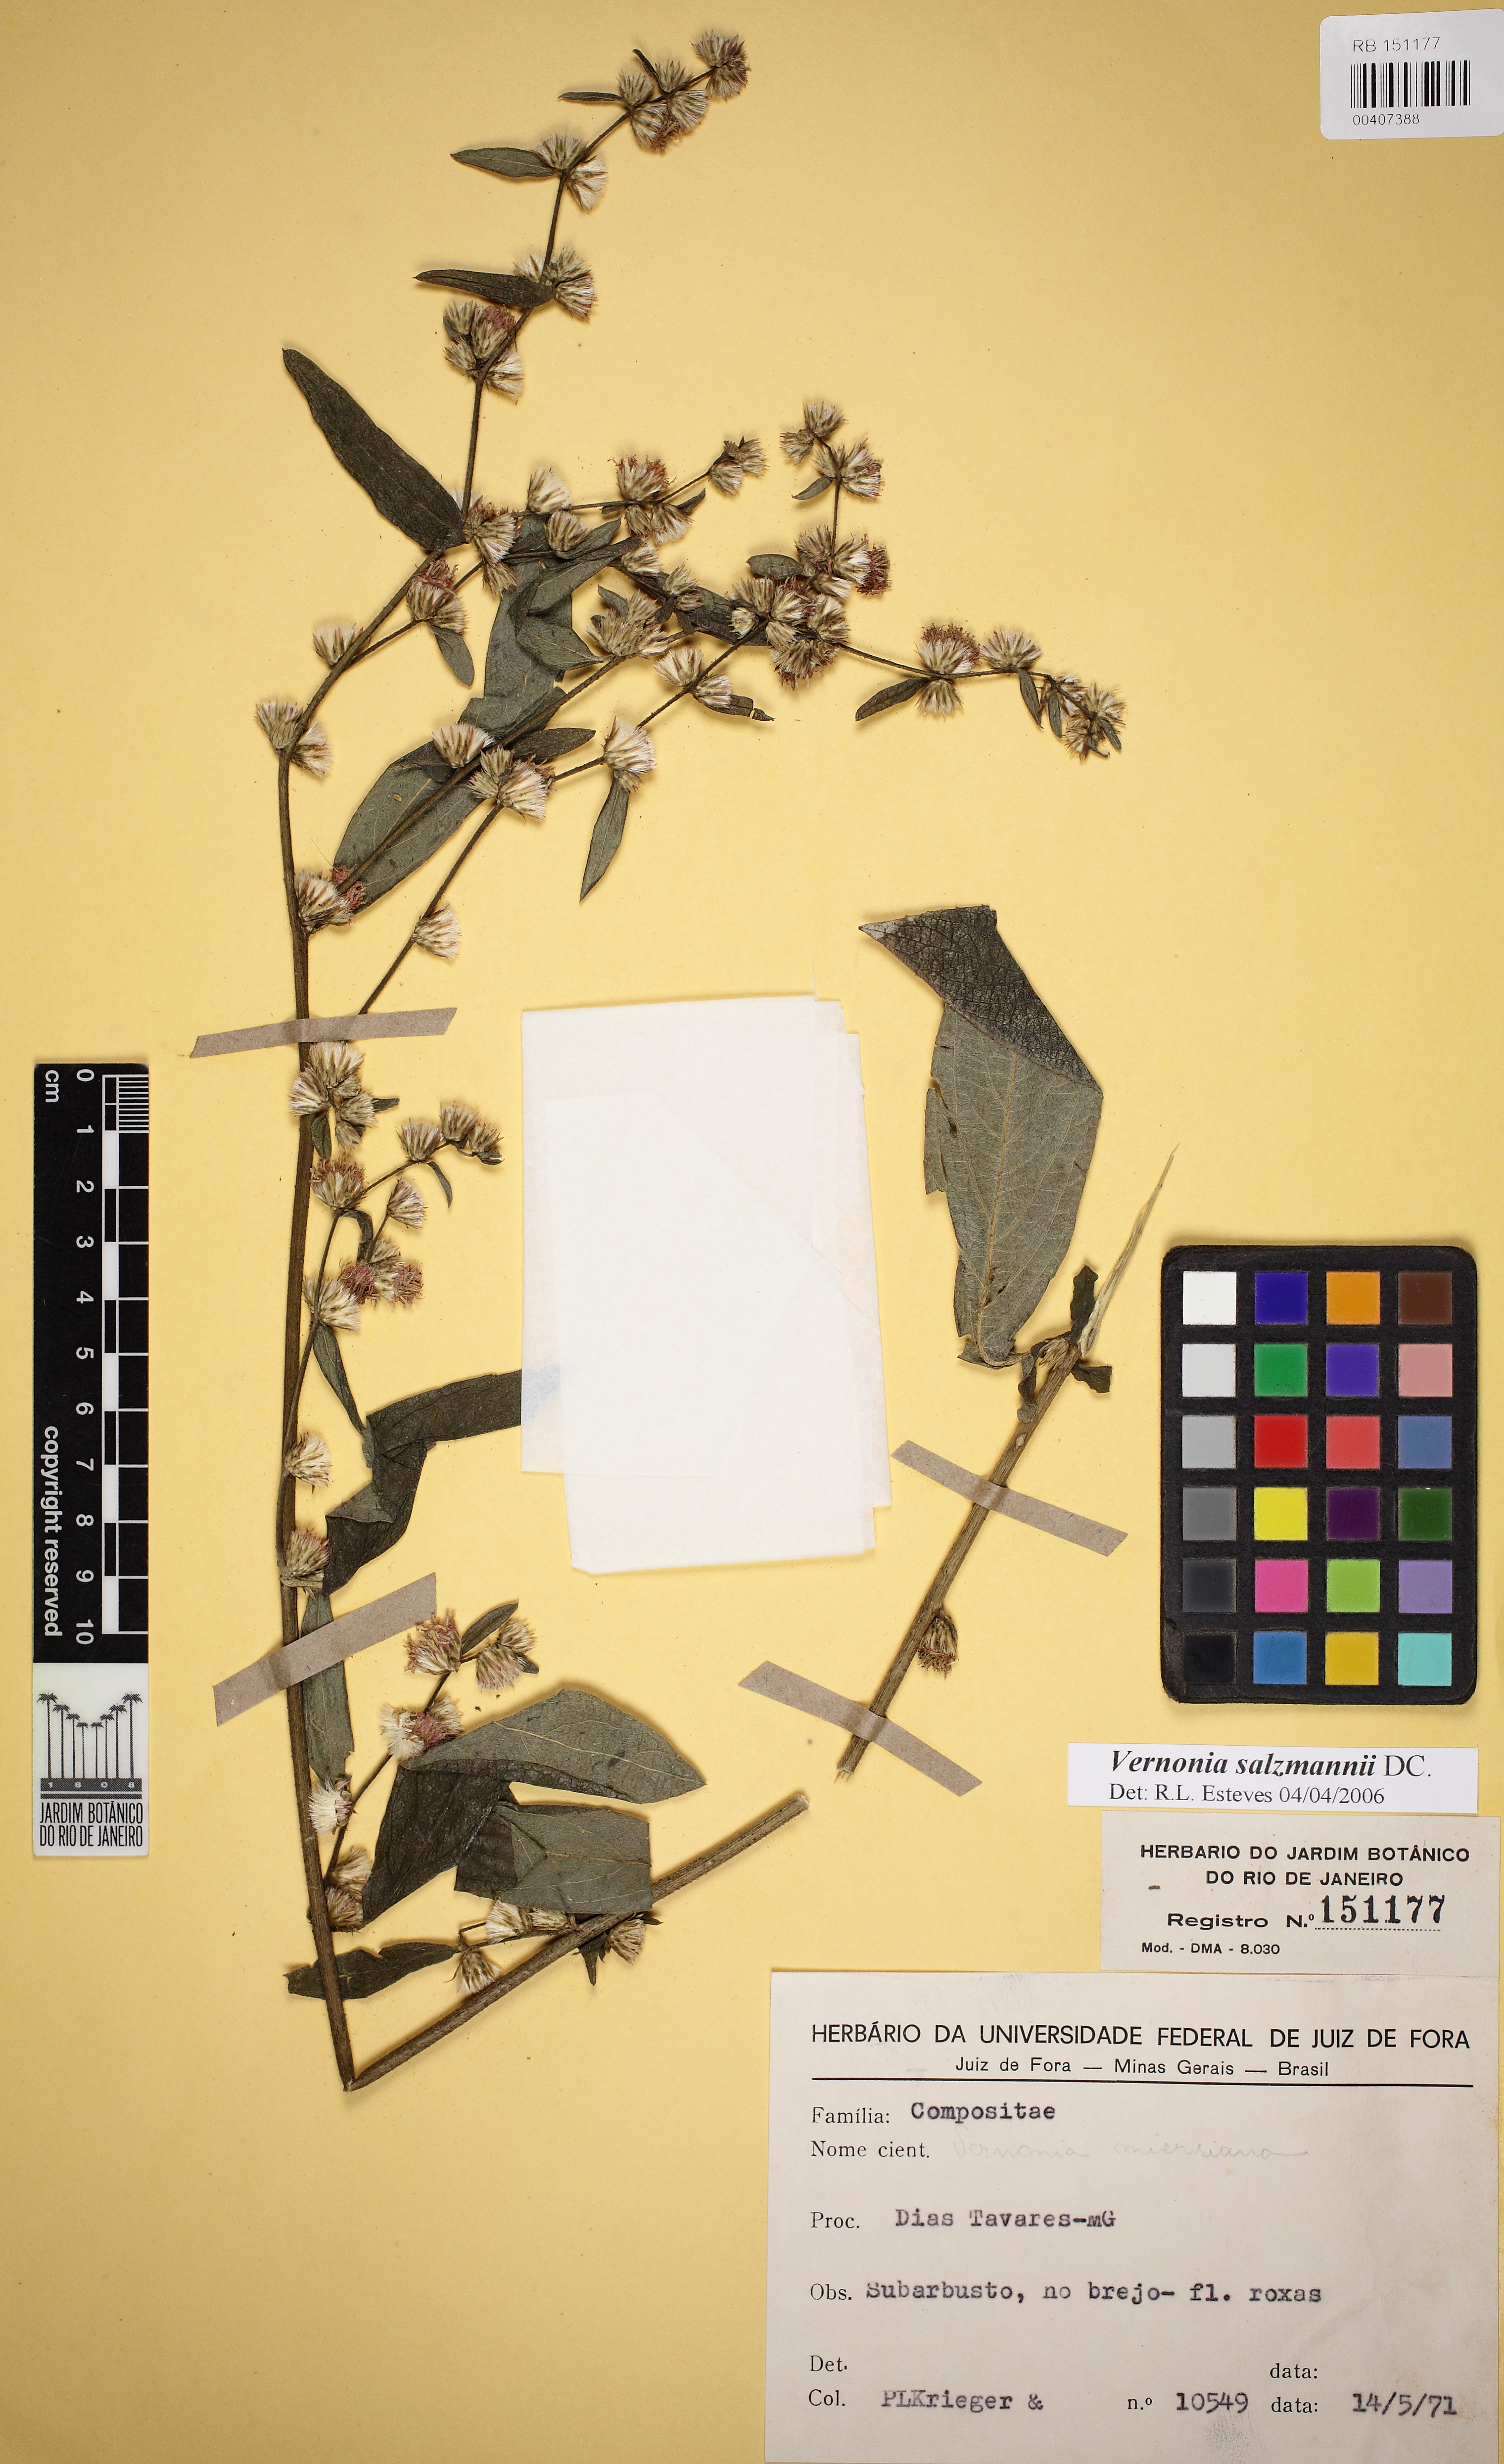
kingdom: Plantae
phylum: Tracheophyta
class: Magnoliopsida
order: Asterales
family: Asteraceae
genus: Lepidaploa
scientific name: Lepidaploa salzmannii
